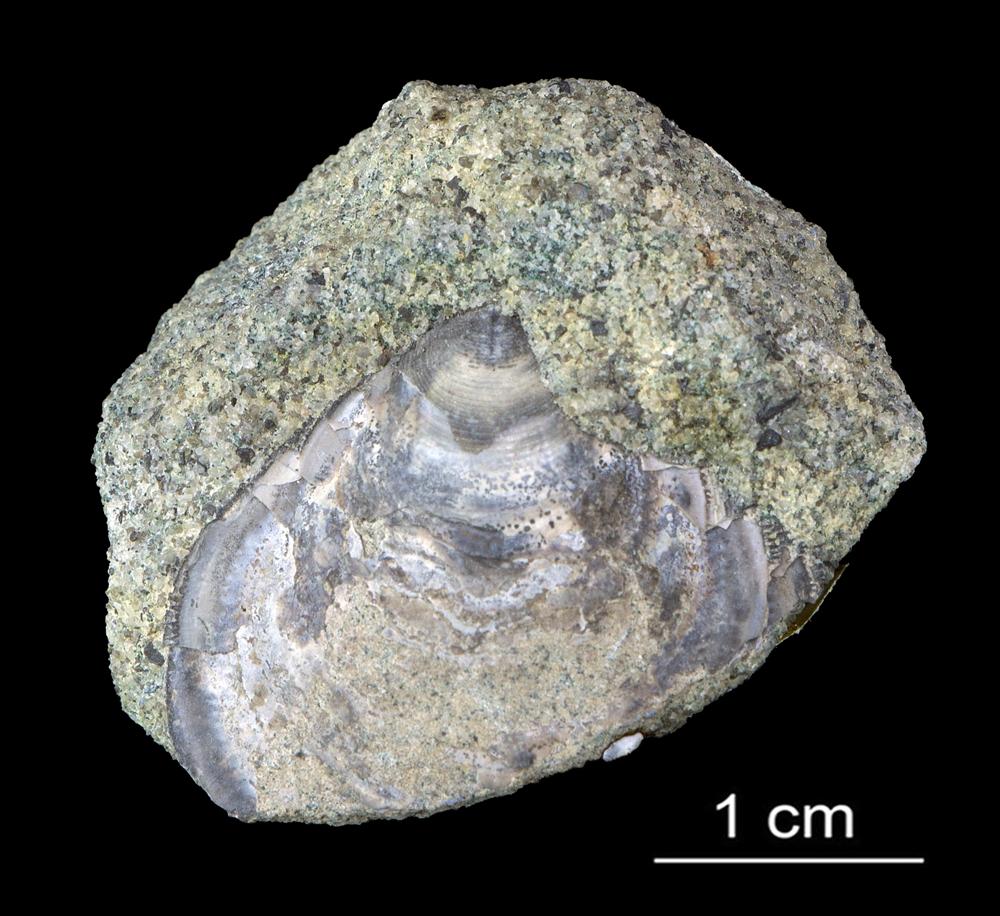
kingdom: Animalia
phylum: Brachiopoda
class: Lingulata
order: Lingulida
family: Zhanatellidae
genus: Thysanotos
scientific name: Thysanotos
